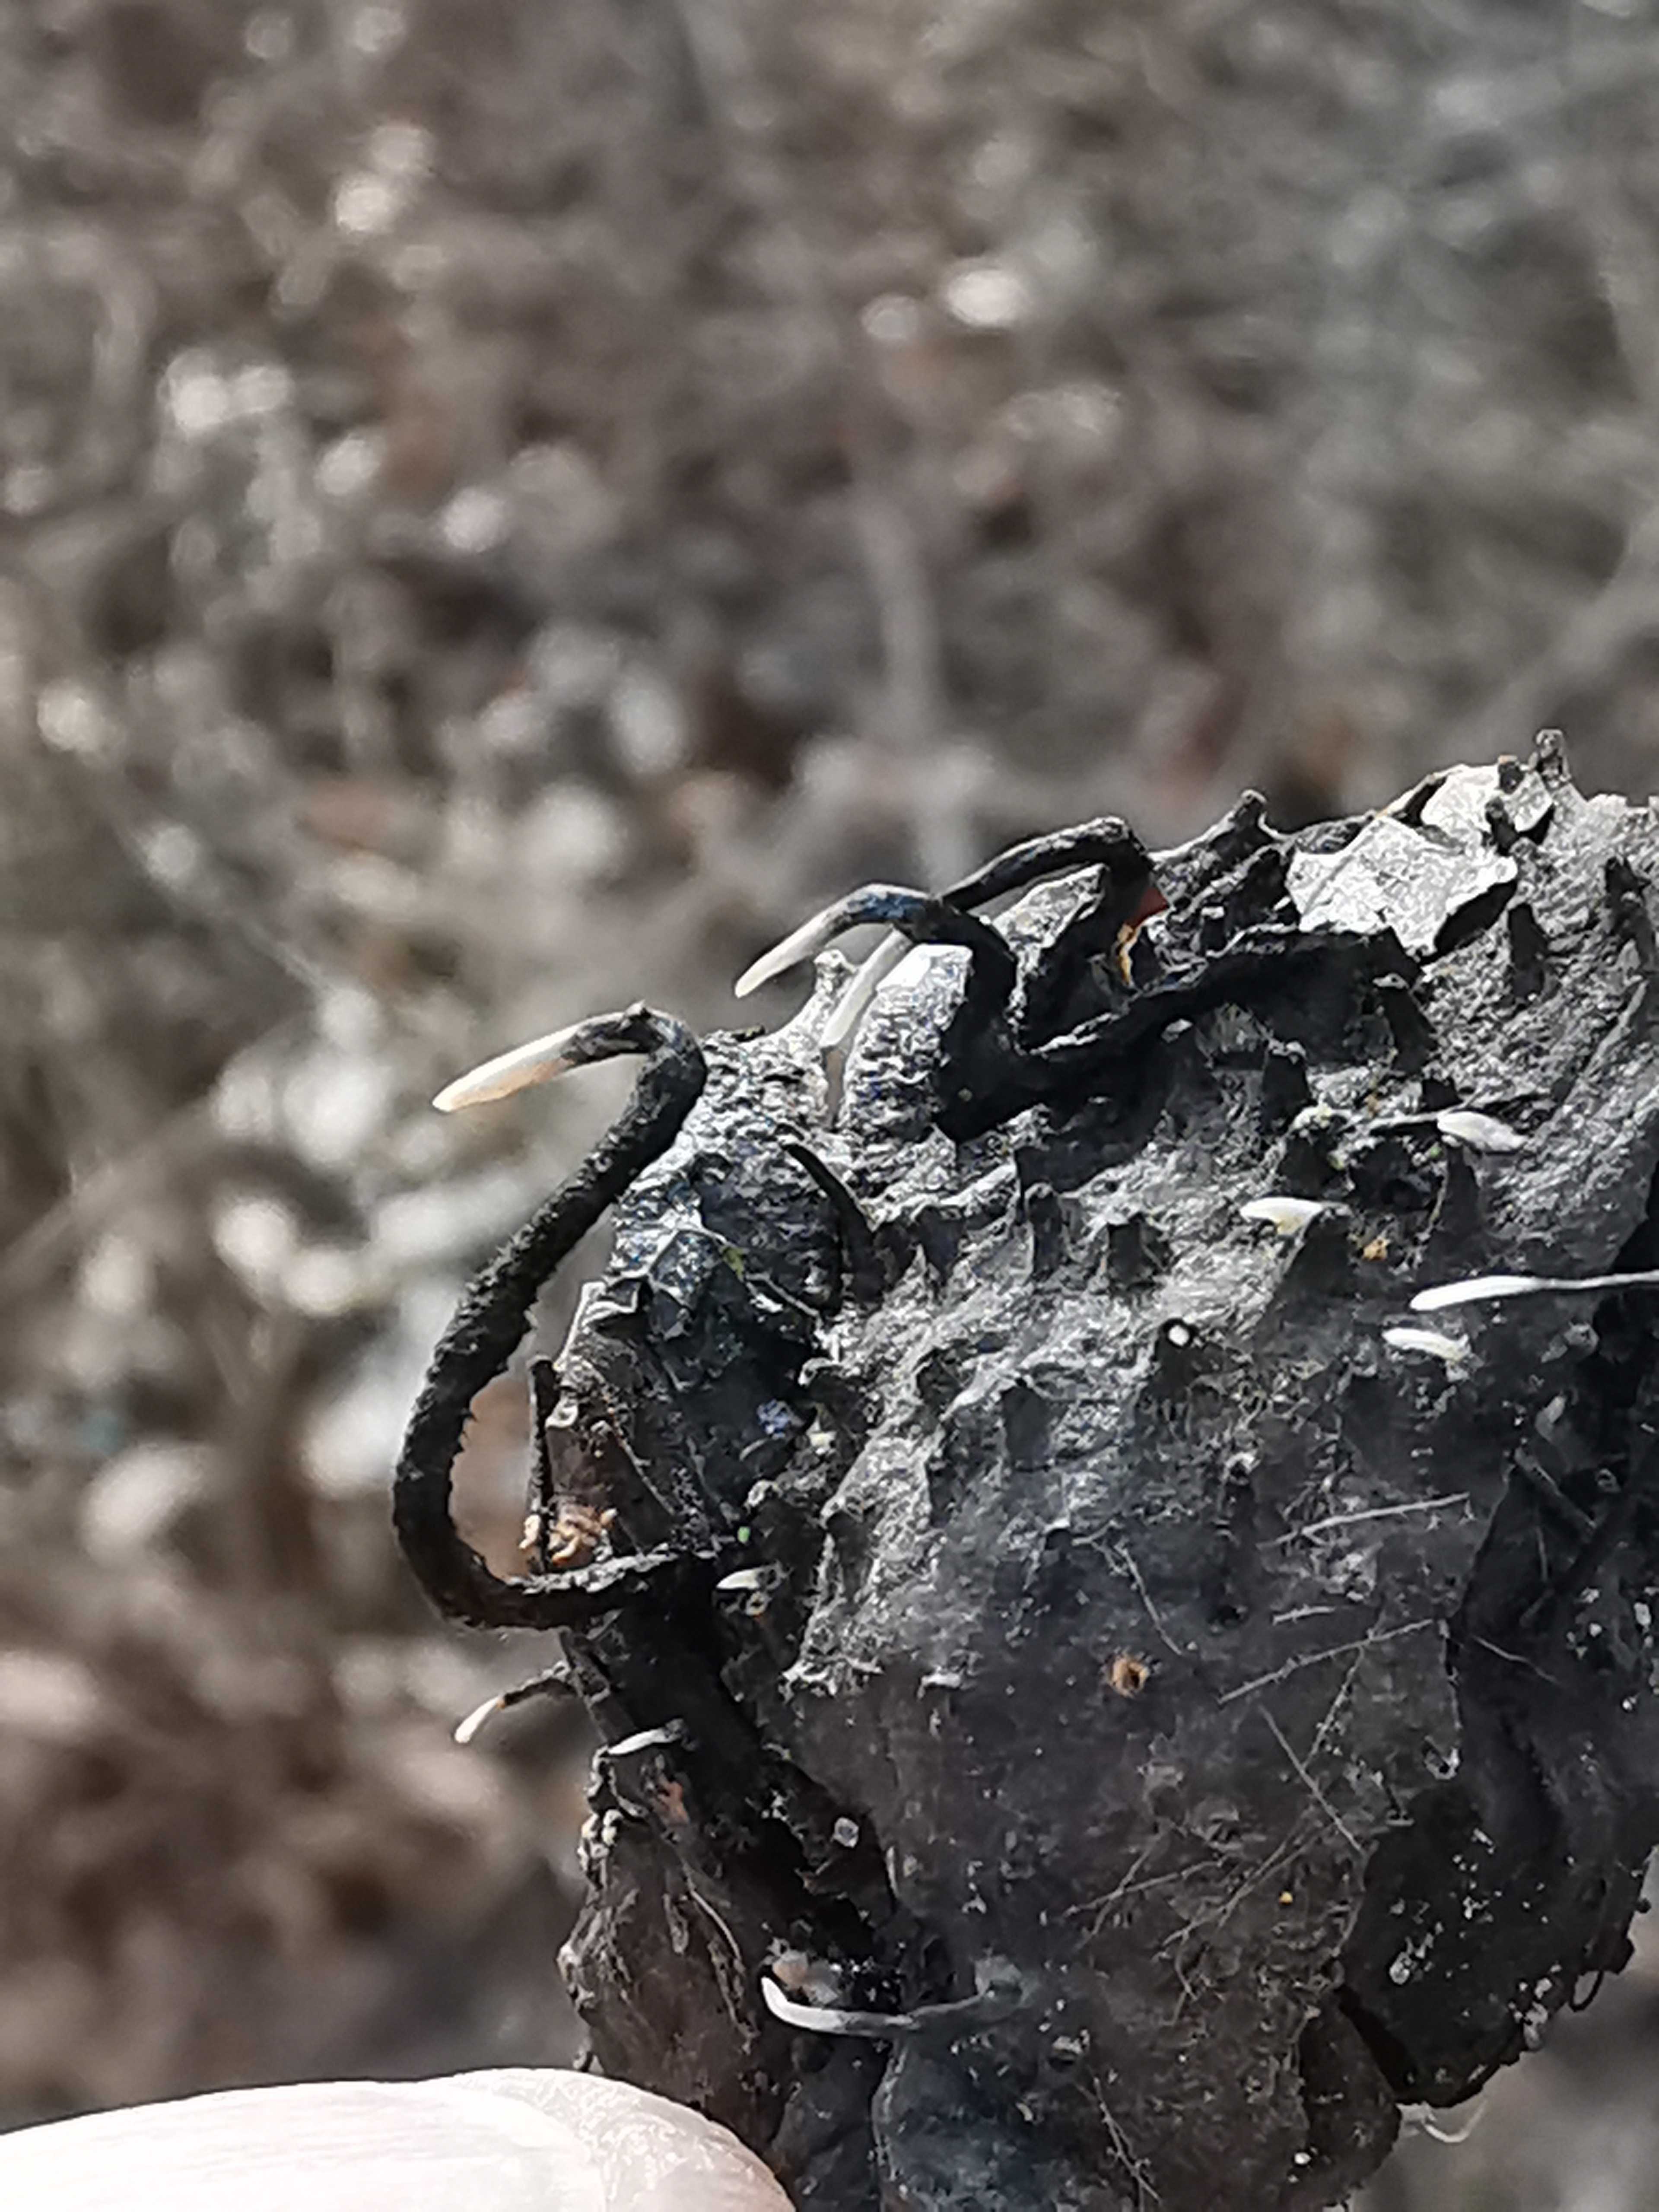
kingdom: Fungi
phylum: Ascomycota
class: Sordariomycetes
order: Xylariales
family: Xylariaceae
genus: Xylaria
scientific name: Xylaria carpophila
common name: bogskål-stødsvamp
